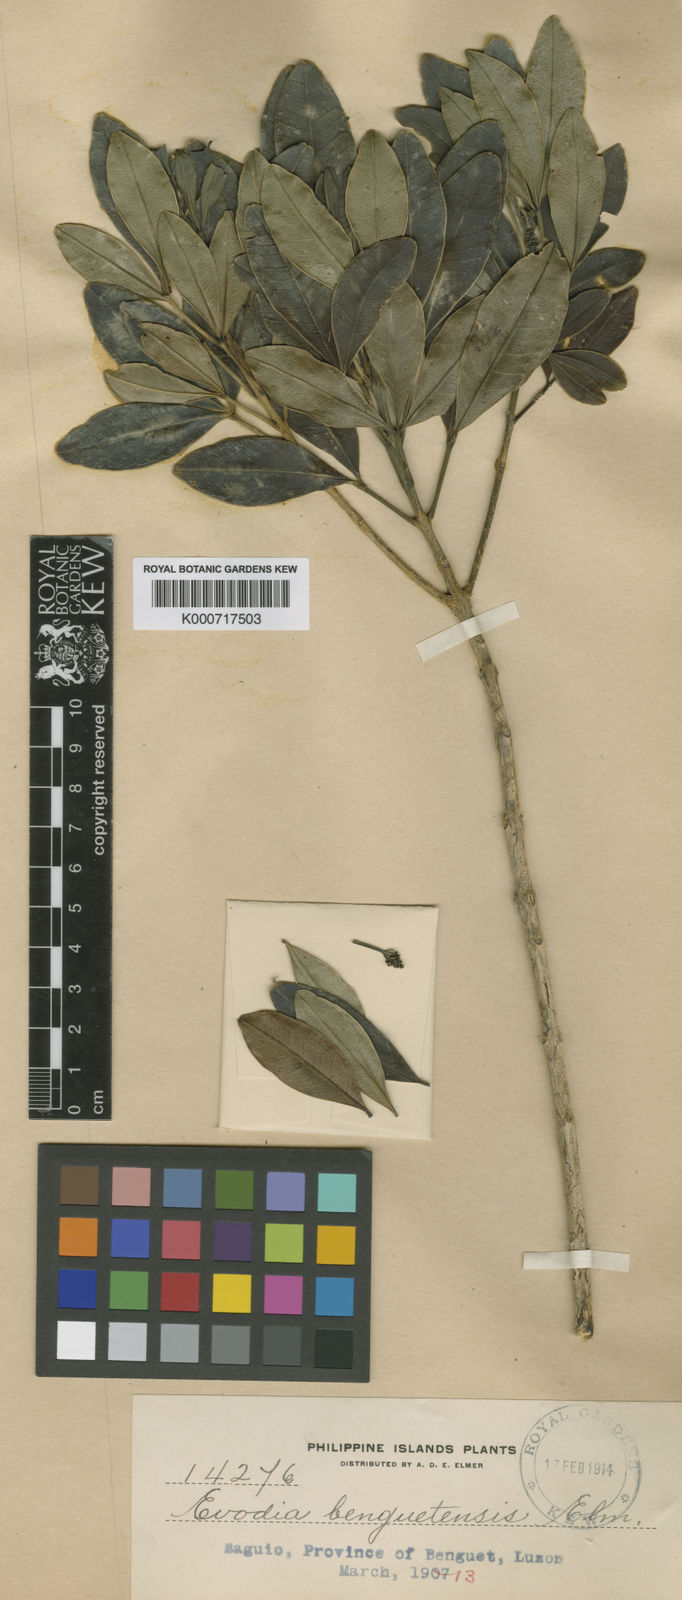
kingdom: Plantae
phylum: Tracheophyta
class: Magnoliopsida
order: Sapindales
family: Rutaceae
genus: Melicope
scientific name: Melicope benguetensis
